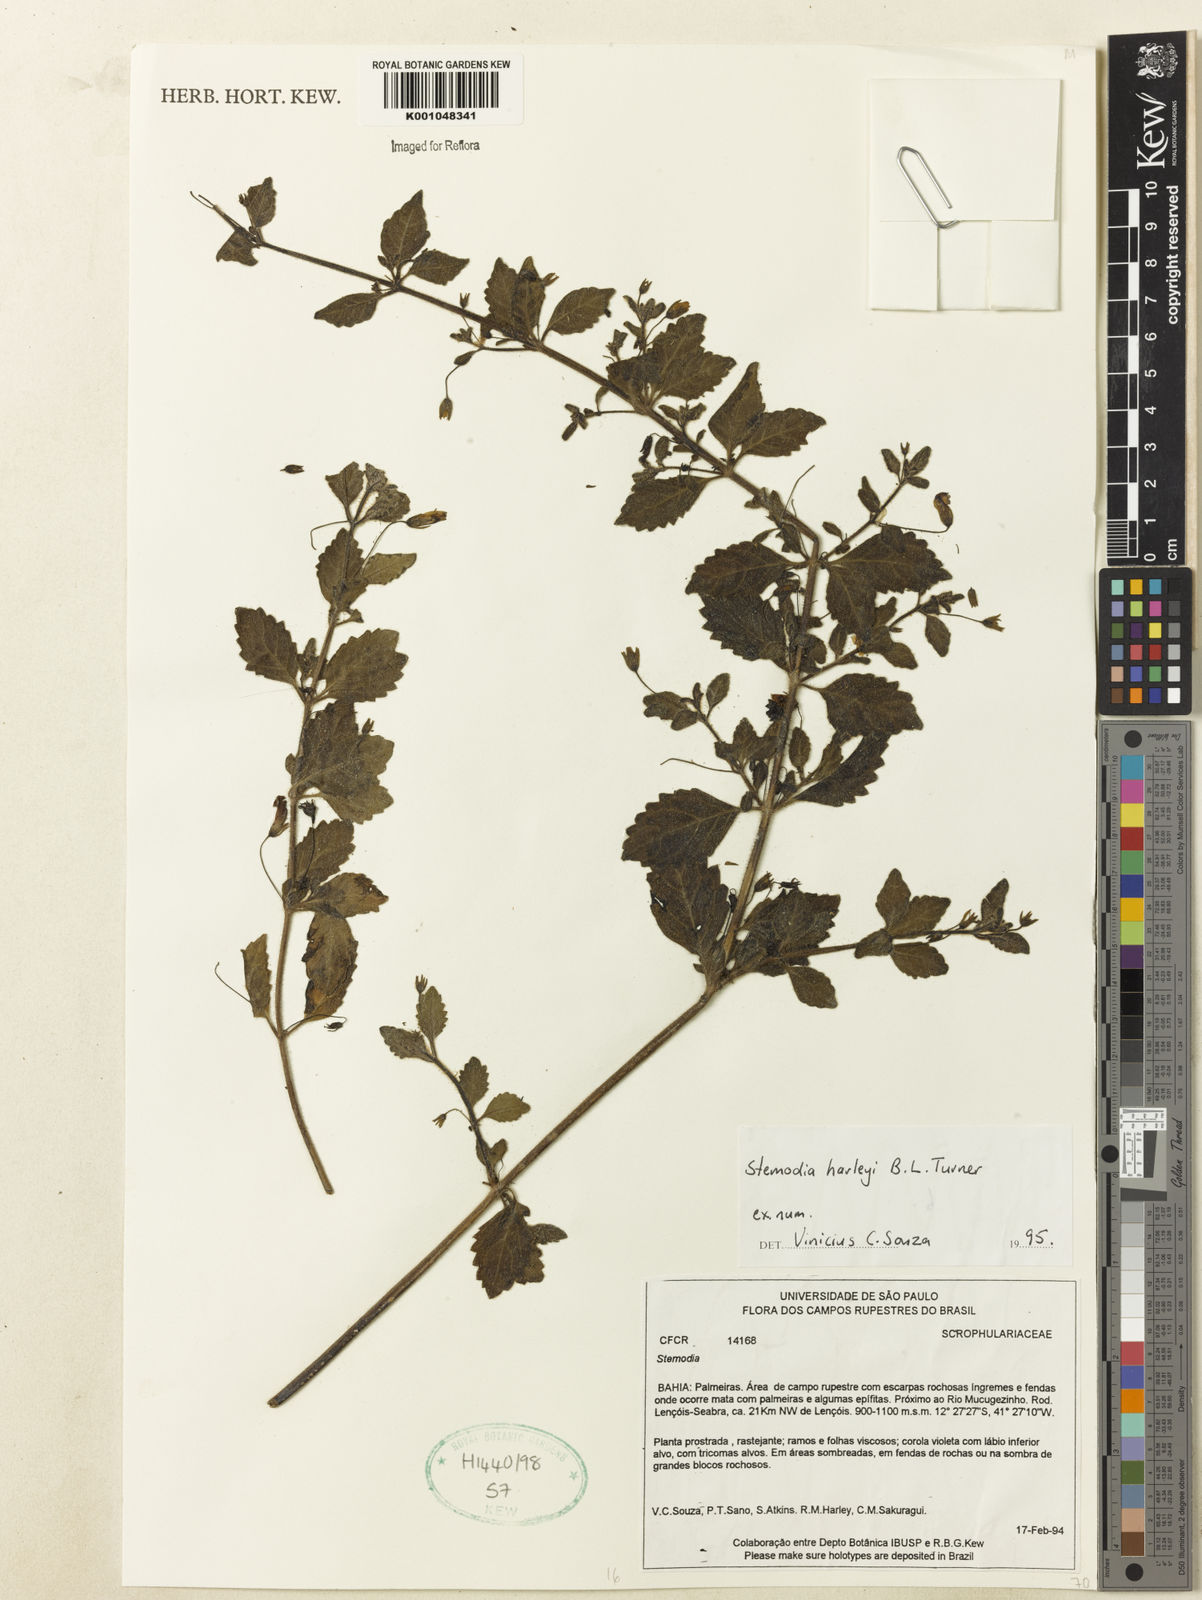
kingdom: Plantae
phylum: Tracheophyta
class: Magnoliopsida
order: Lamiales
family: Plantaginaceae
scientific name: Plantaginaceae
